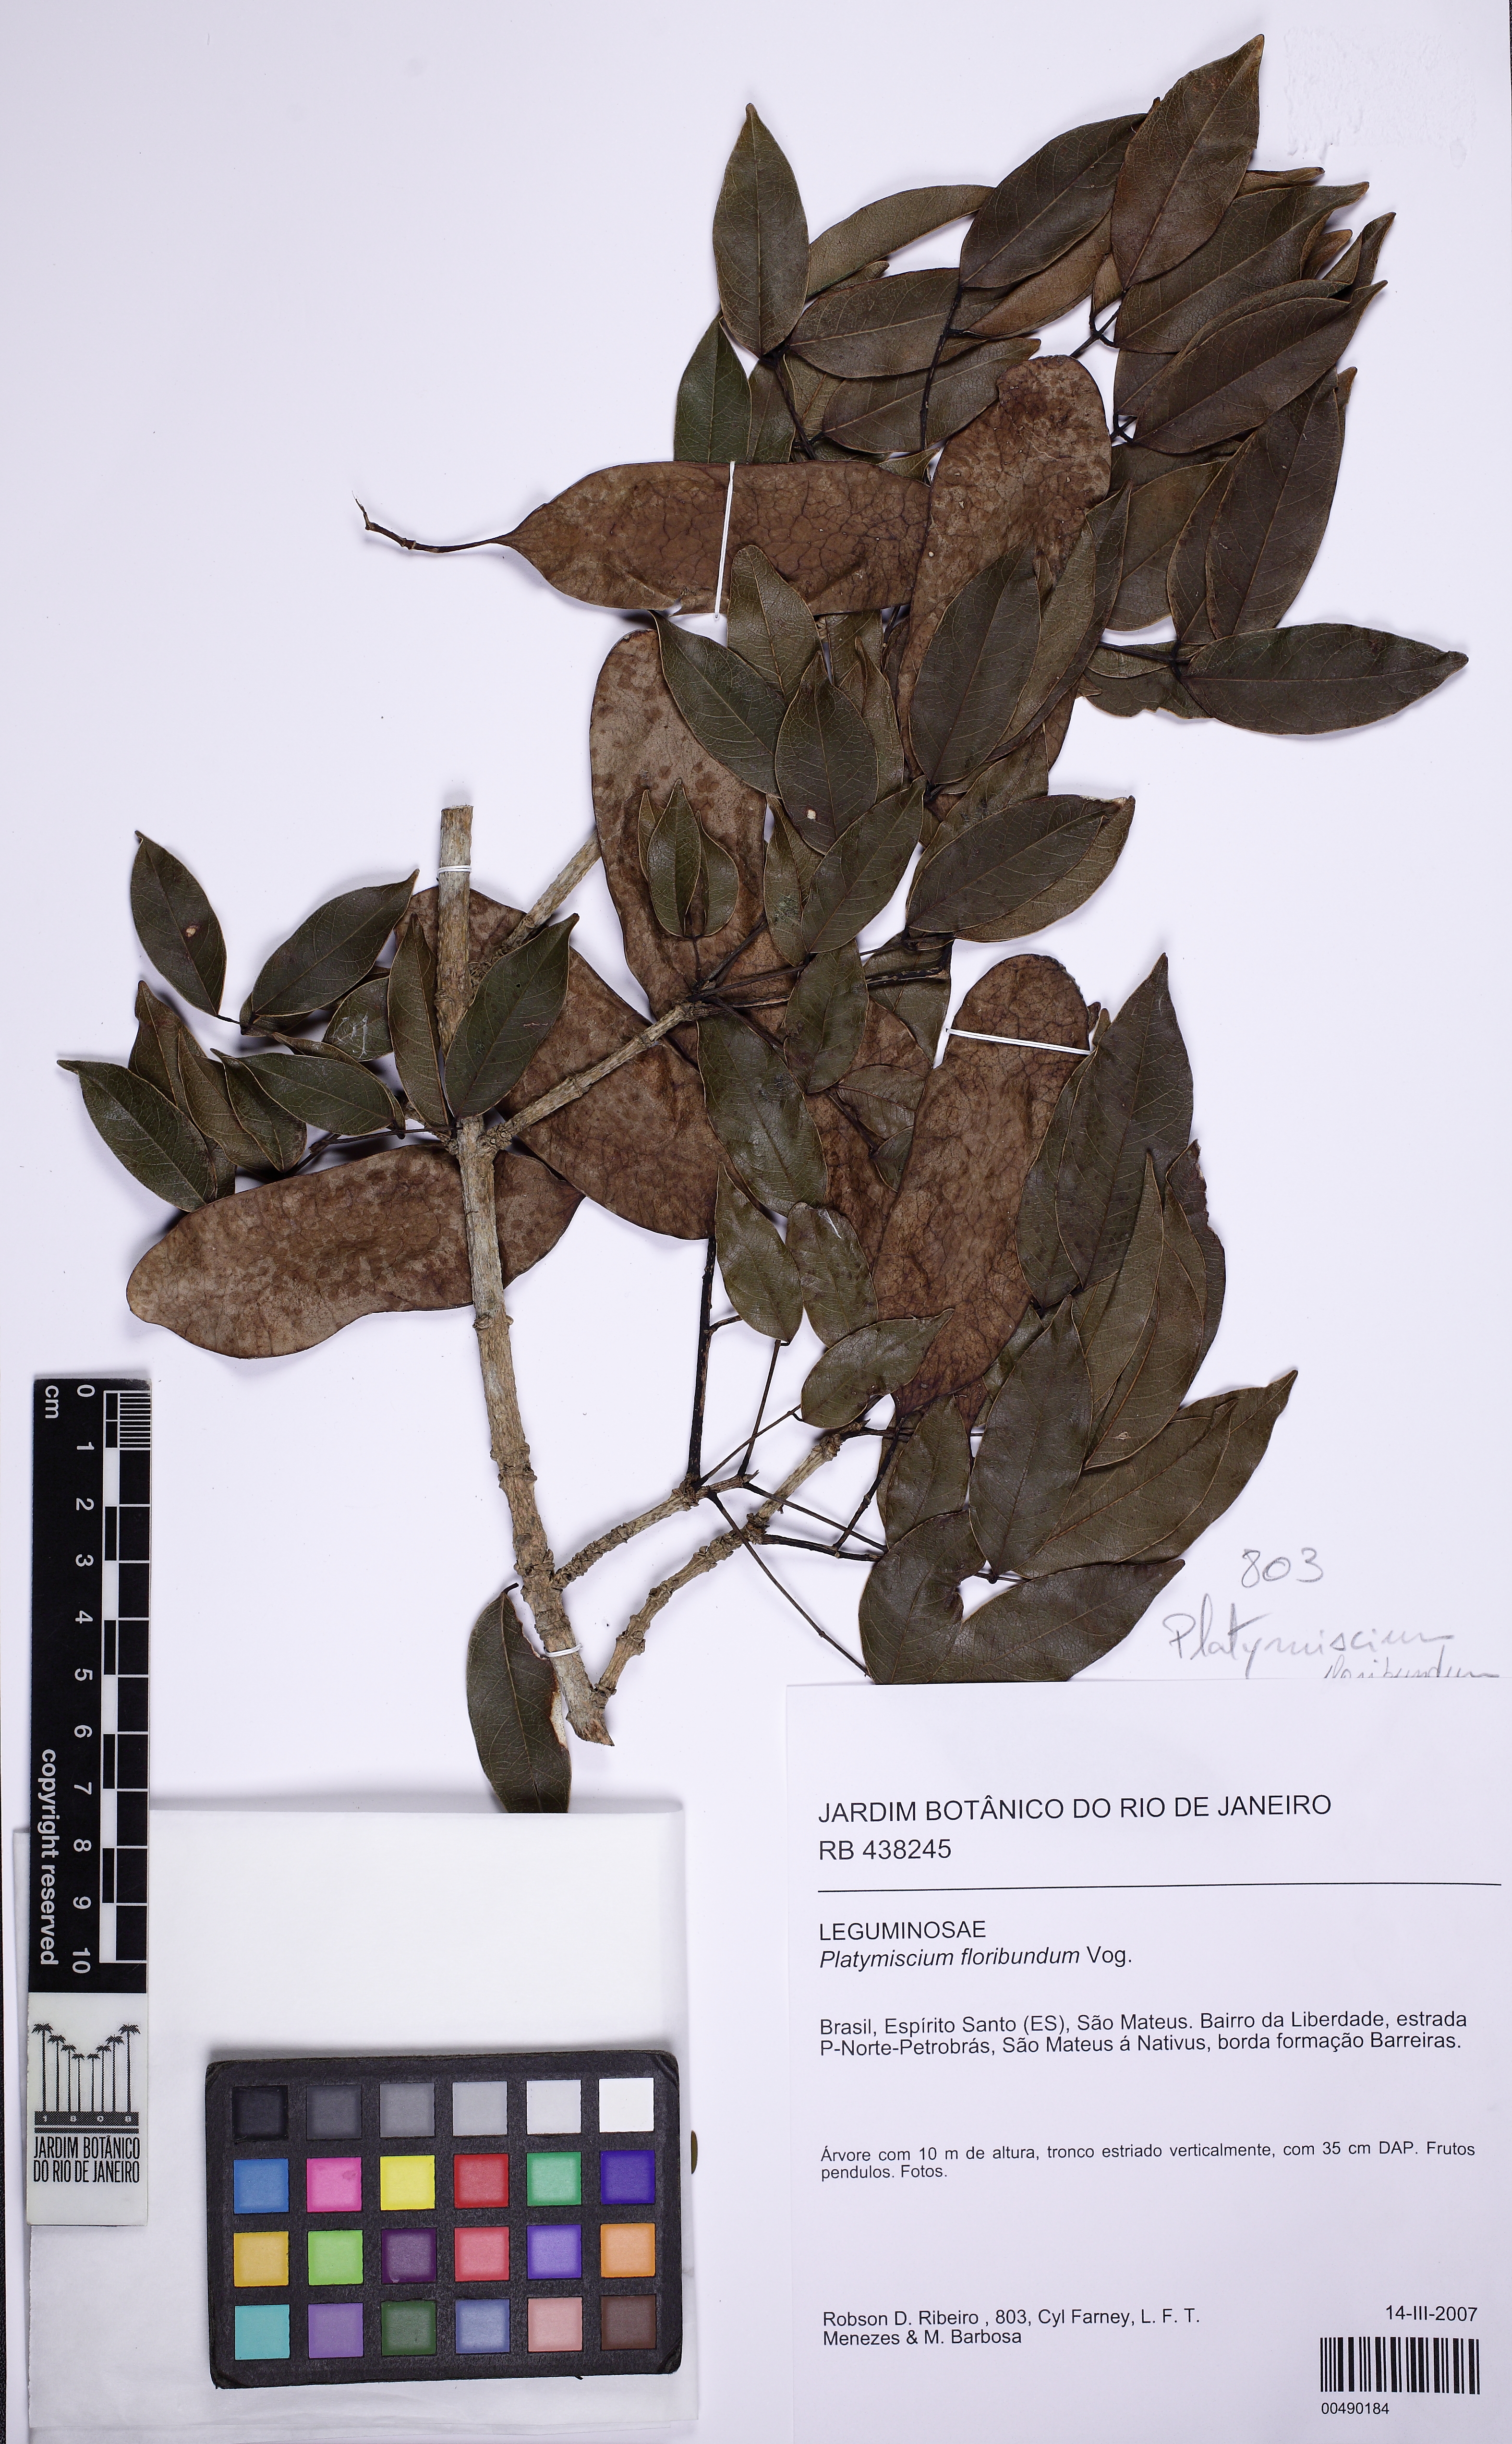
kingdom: Plantae
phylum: Tracheophyta
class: Magnoliopsida
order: Fabales
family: Fabaceae
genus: Platymiscium
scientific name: Platymiscium floribundum
